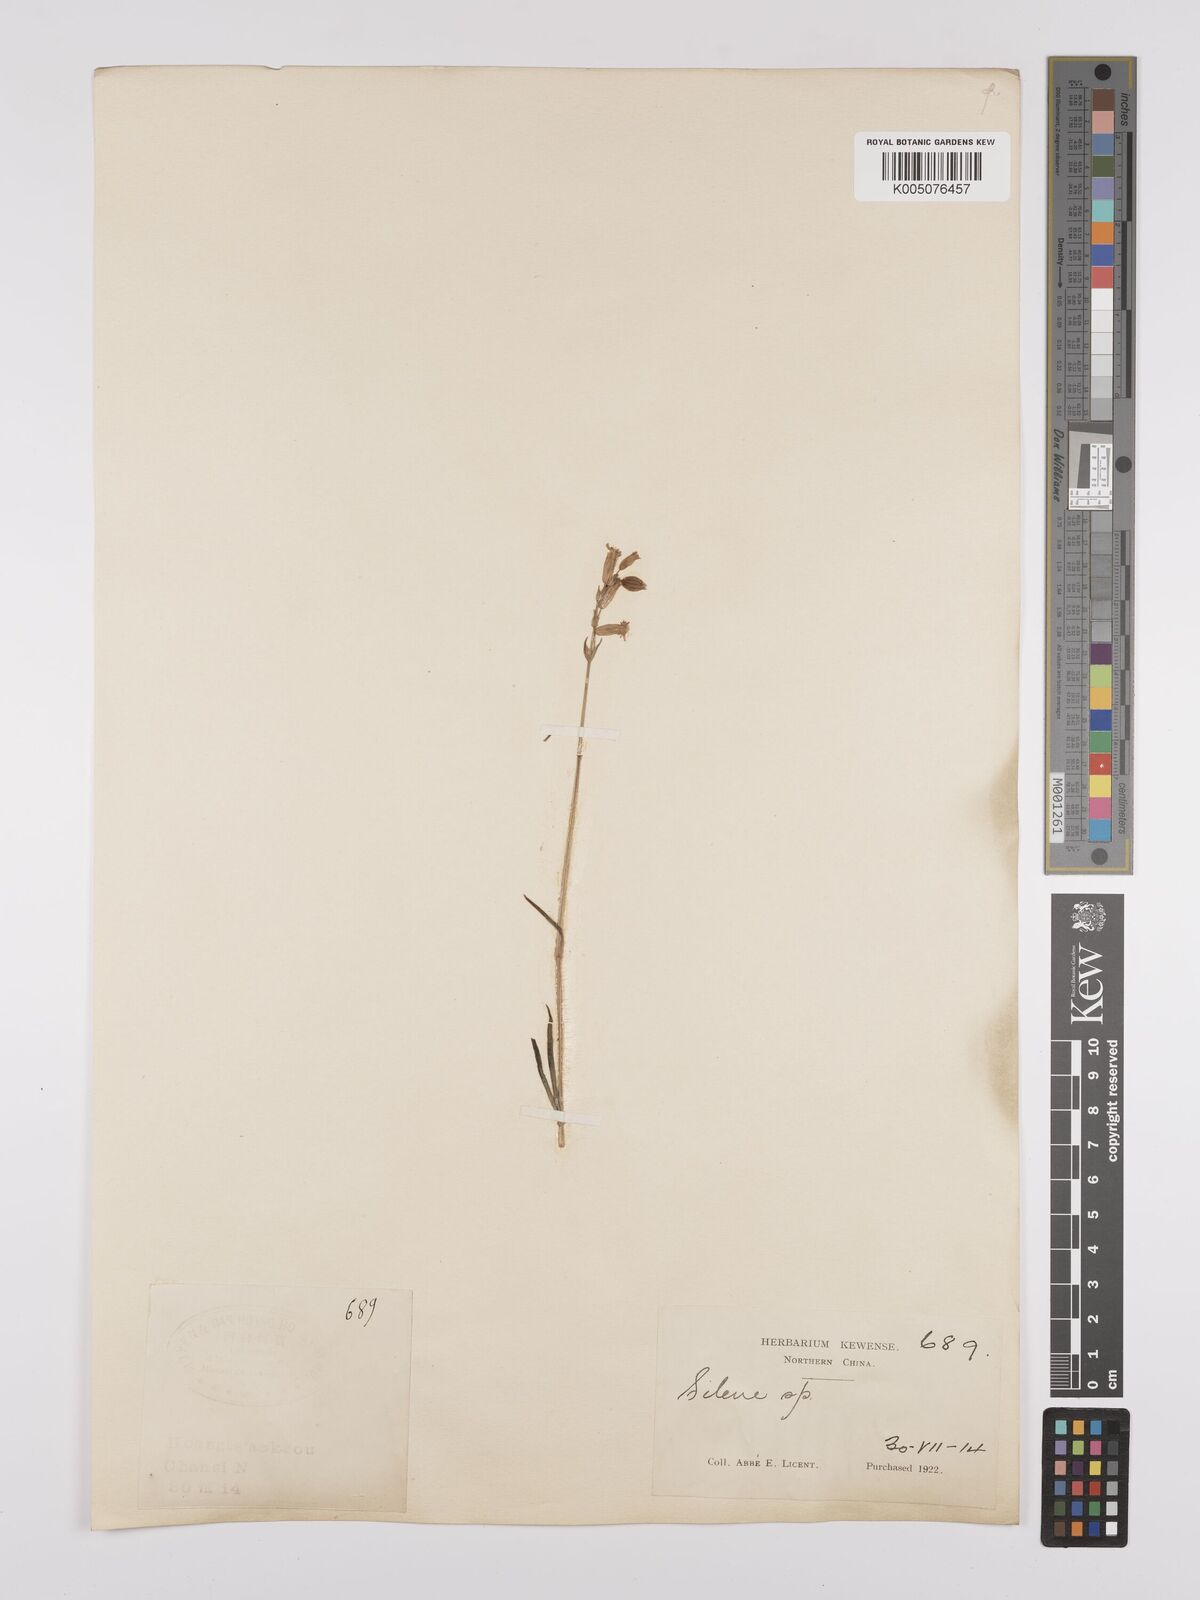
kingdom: Plantae
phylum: Tracheophyta
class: Magnoliopsida
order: Caryophyllales
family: Caryophyllaceae
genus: Silene
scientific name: Silene
